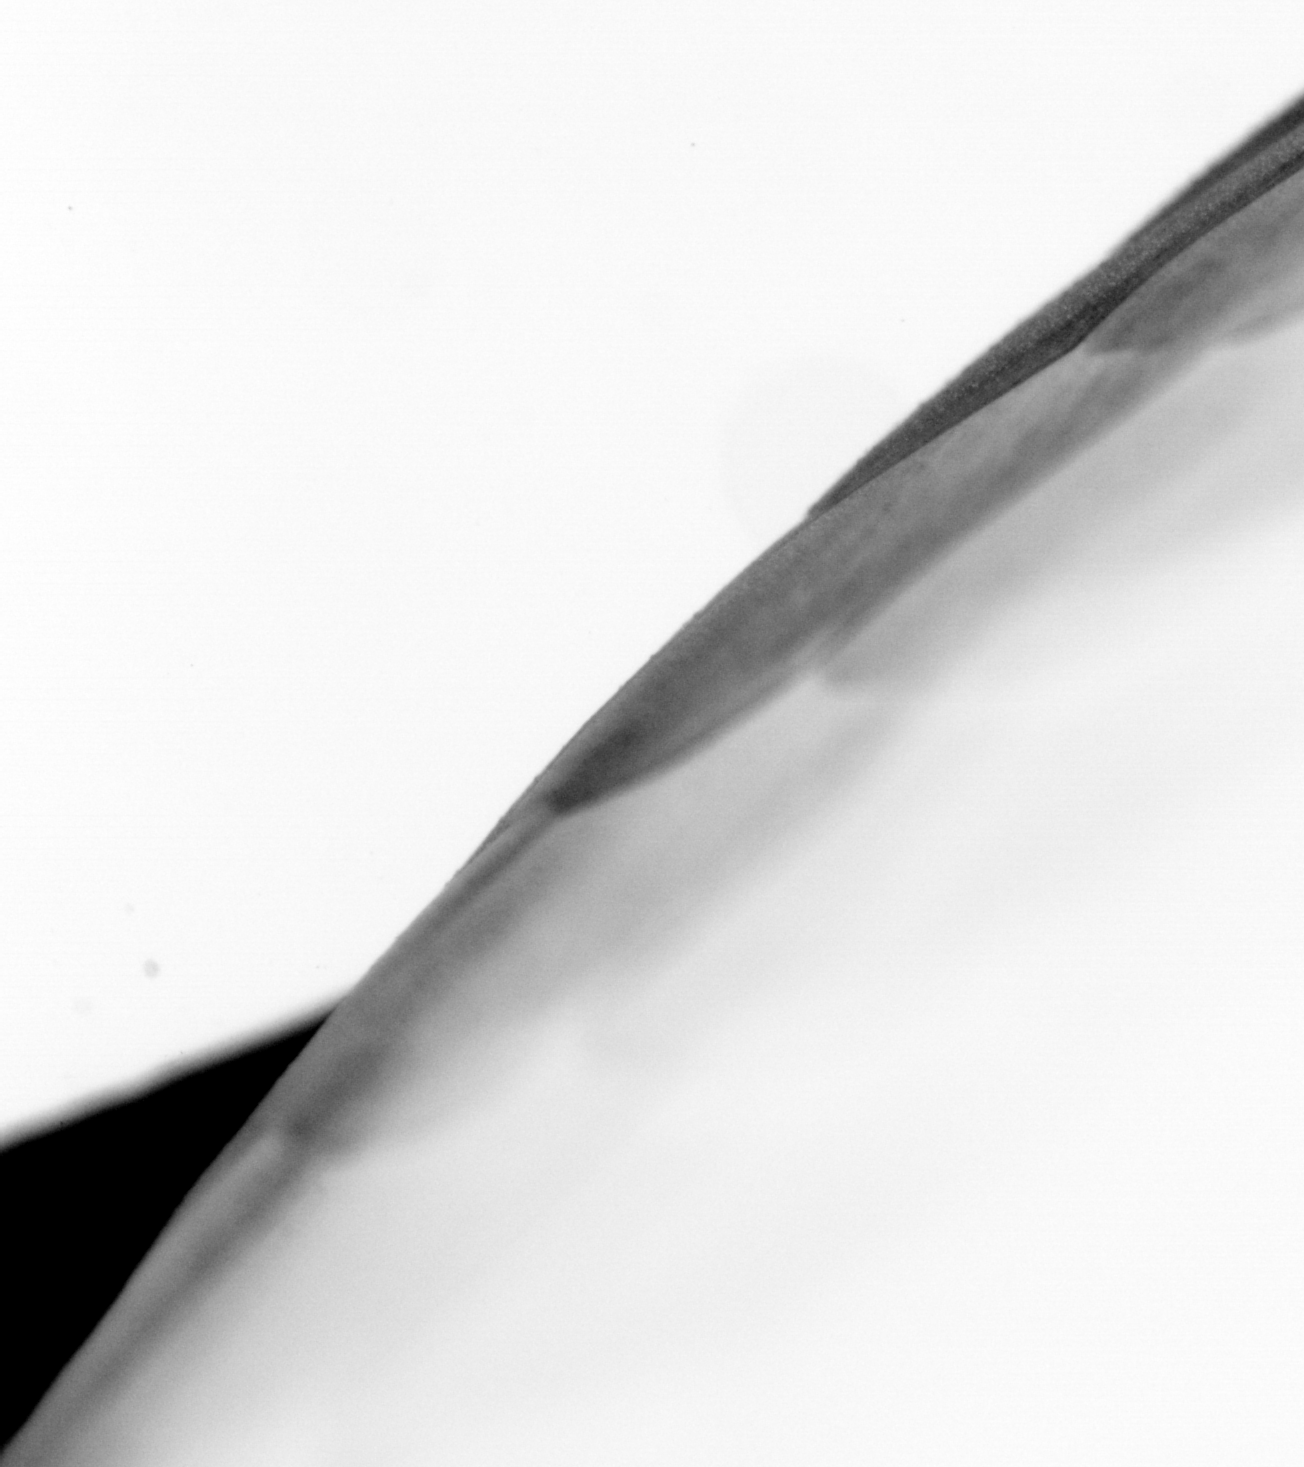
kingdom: Animalia
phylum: Chordata
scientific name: Chordata
